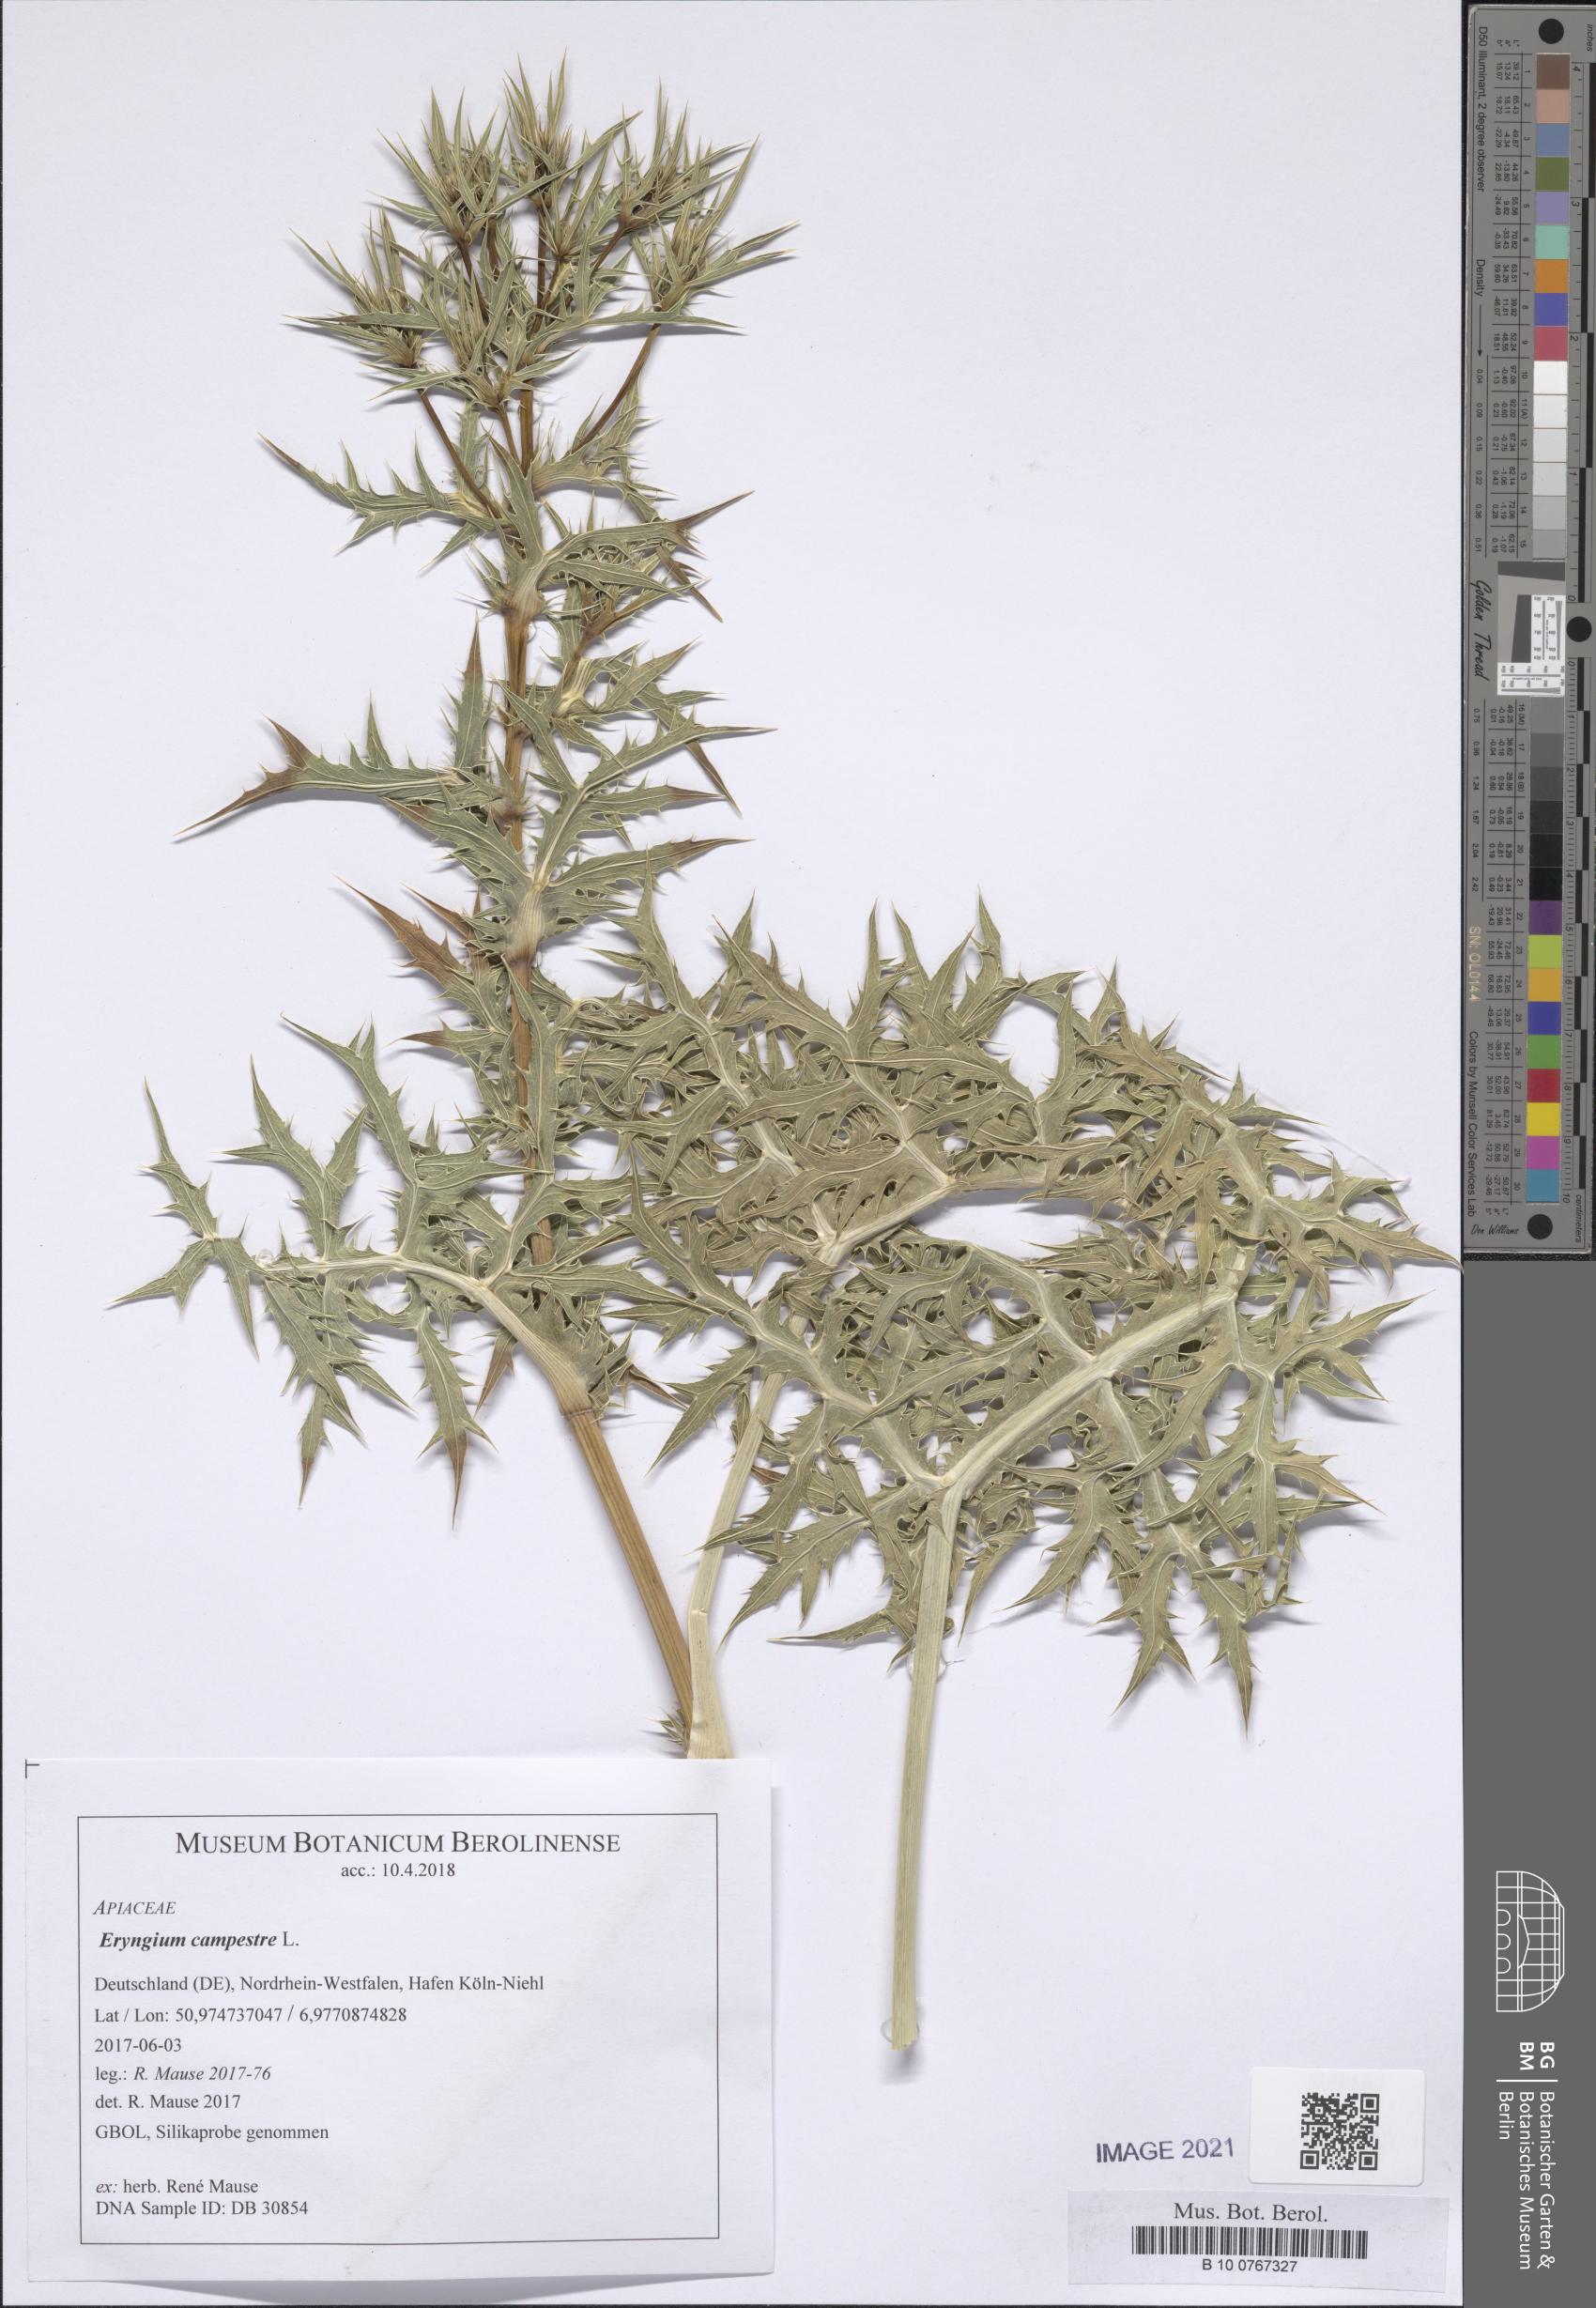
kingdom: Plantae
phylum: Tracheophyta
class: Magnoliopsida
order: Apiales
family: Apiaceae
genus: Eryngium
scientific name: Eryngium campestre
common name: Field eryngo
